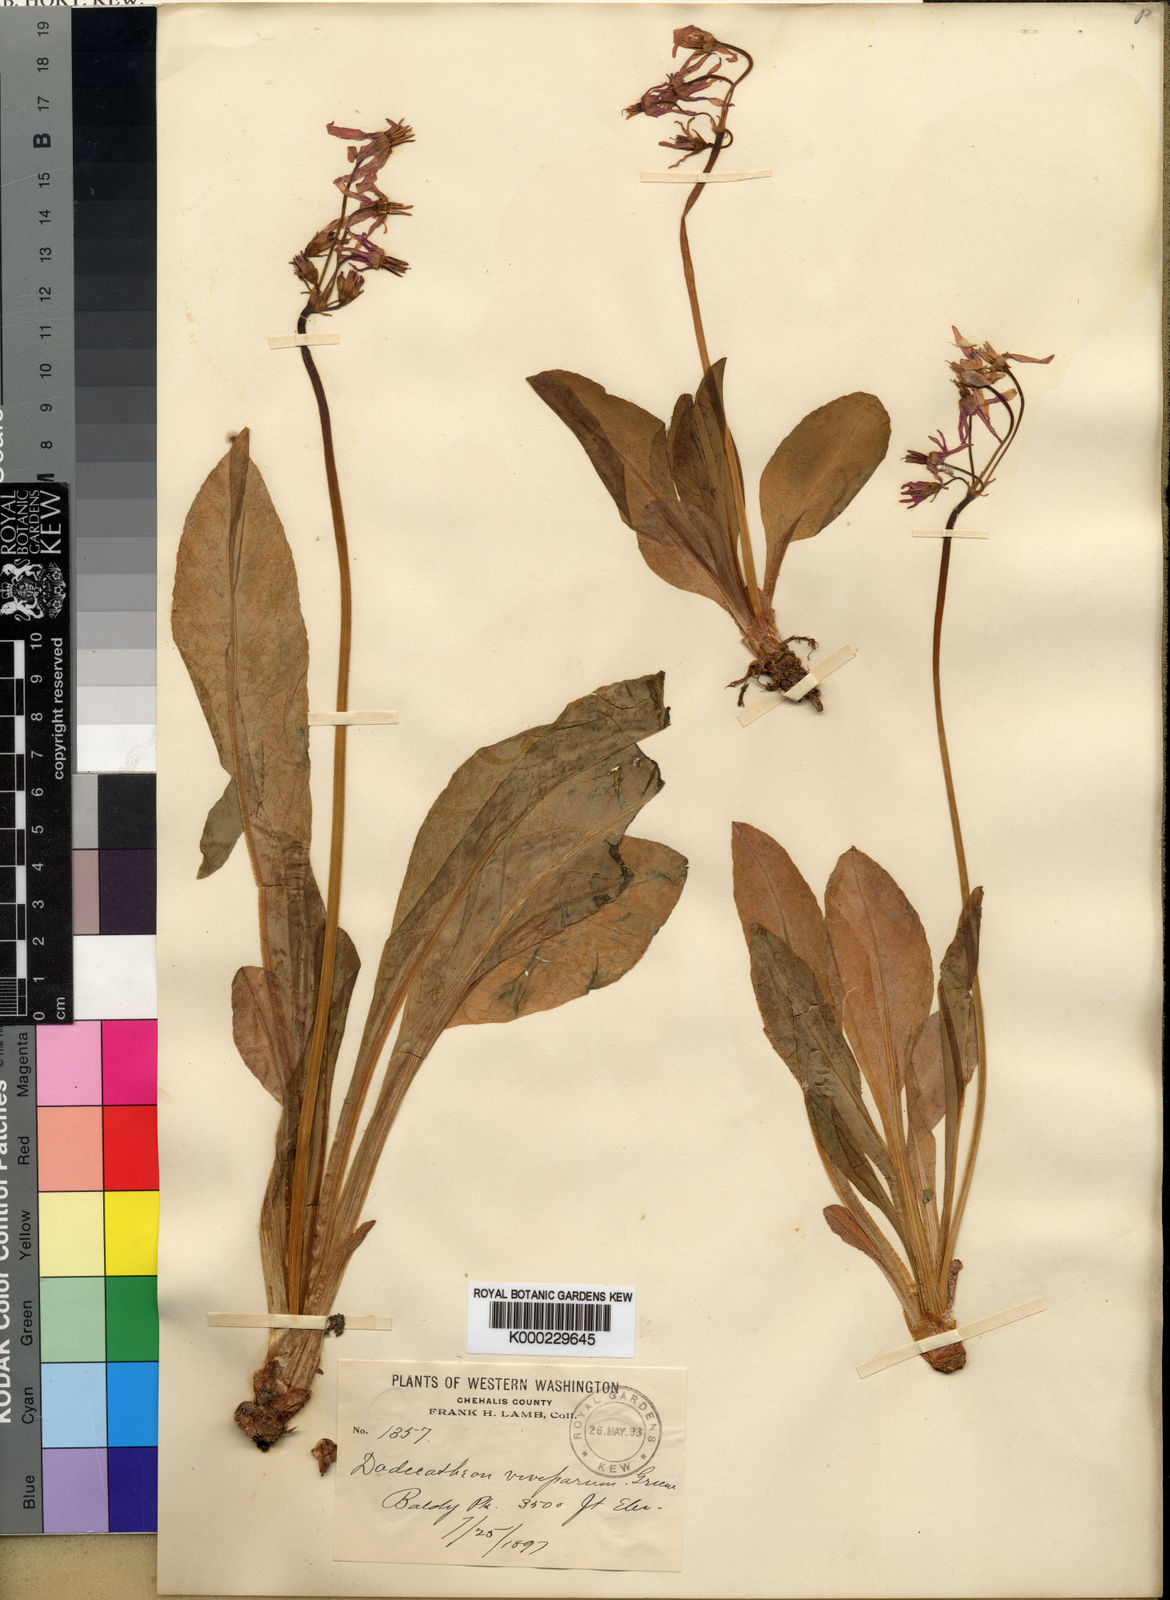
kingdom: Plantae
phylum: Tracheophyta
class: Magnoliopsida
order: Ericales
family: Primulaceae
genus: Dodecatheon
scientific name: Dodecatheon jeffreyanum
